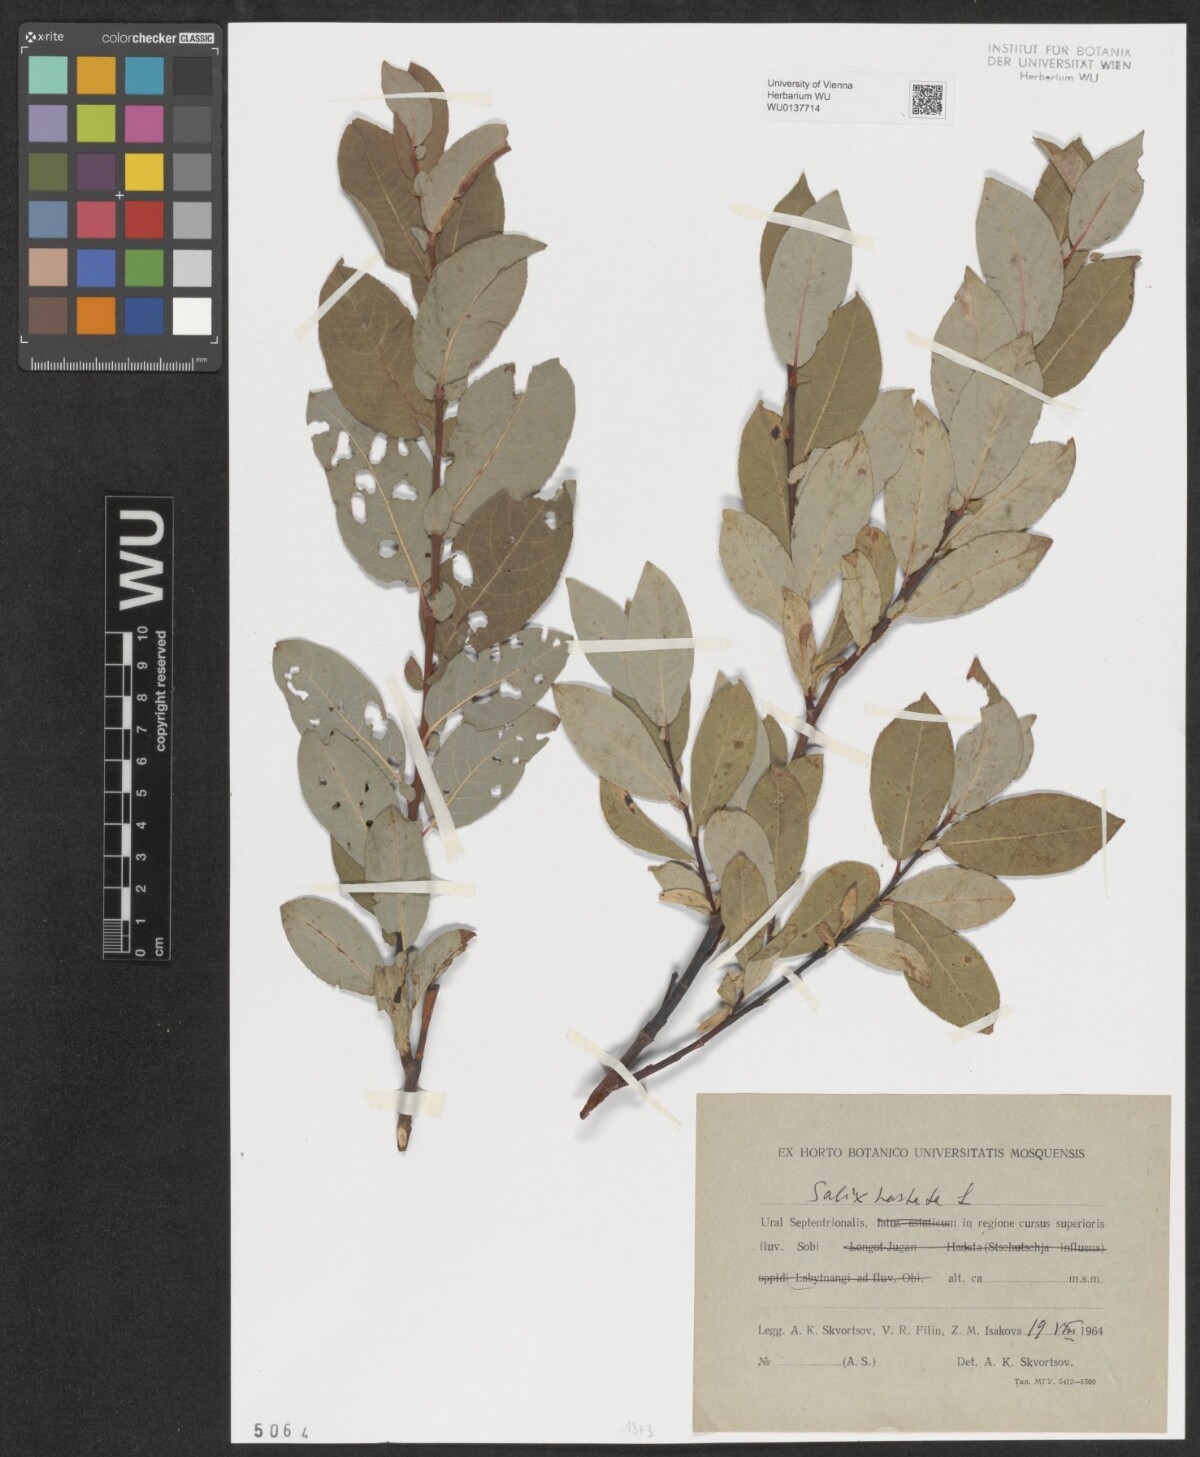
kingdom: Plantae
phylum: Tracheophyta
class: Magnoliopsida
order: Malpighiales
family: Salicaceae
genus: Salix
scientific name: Salix hastata
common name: Halberd willow
